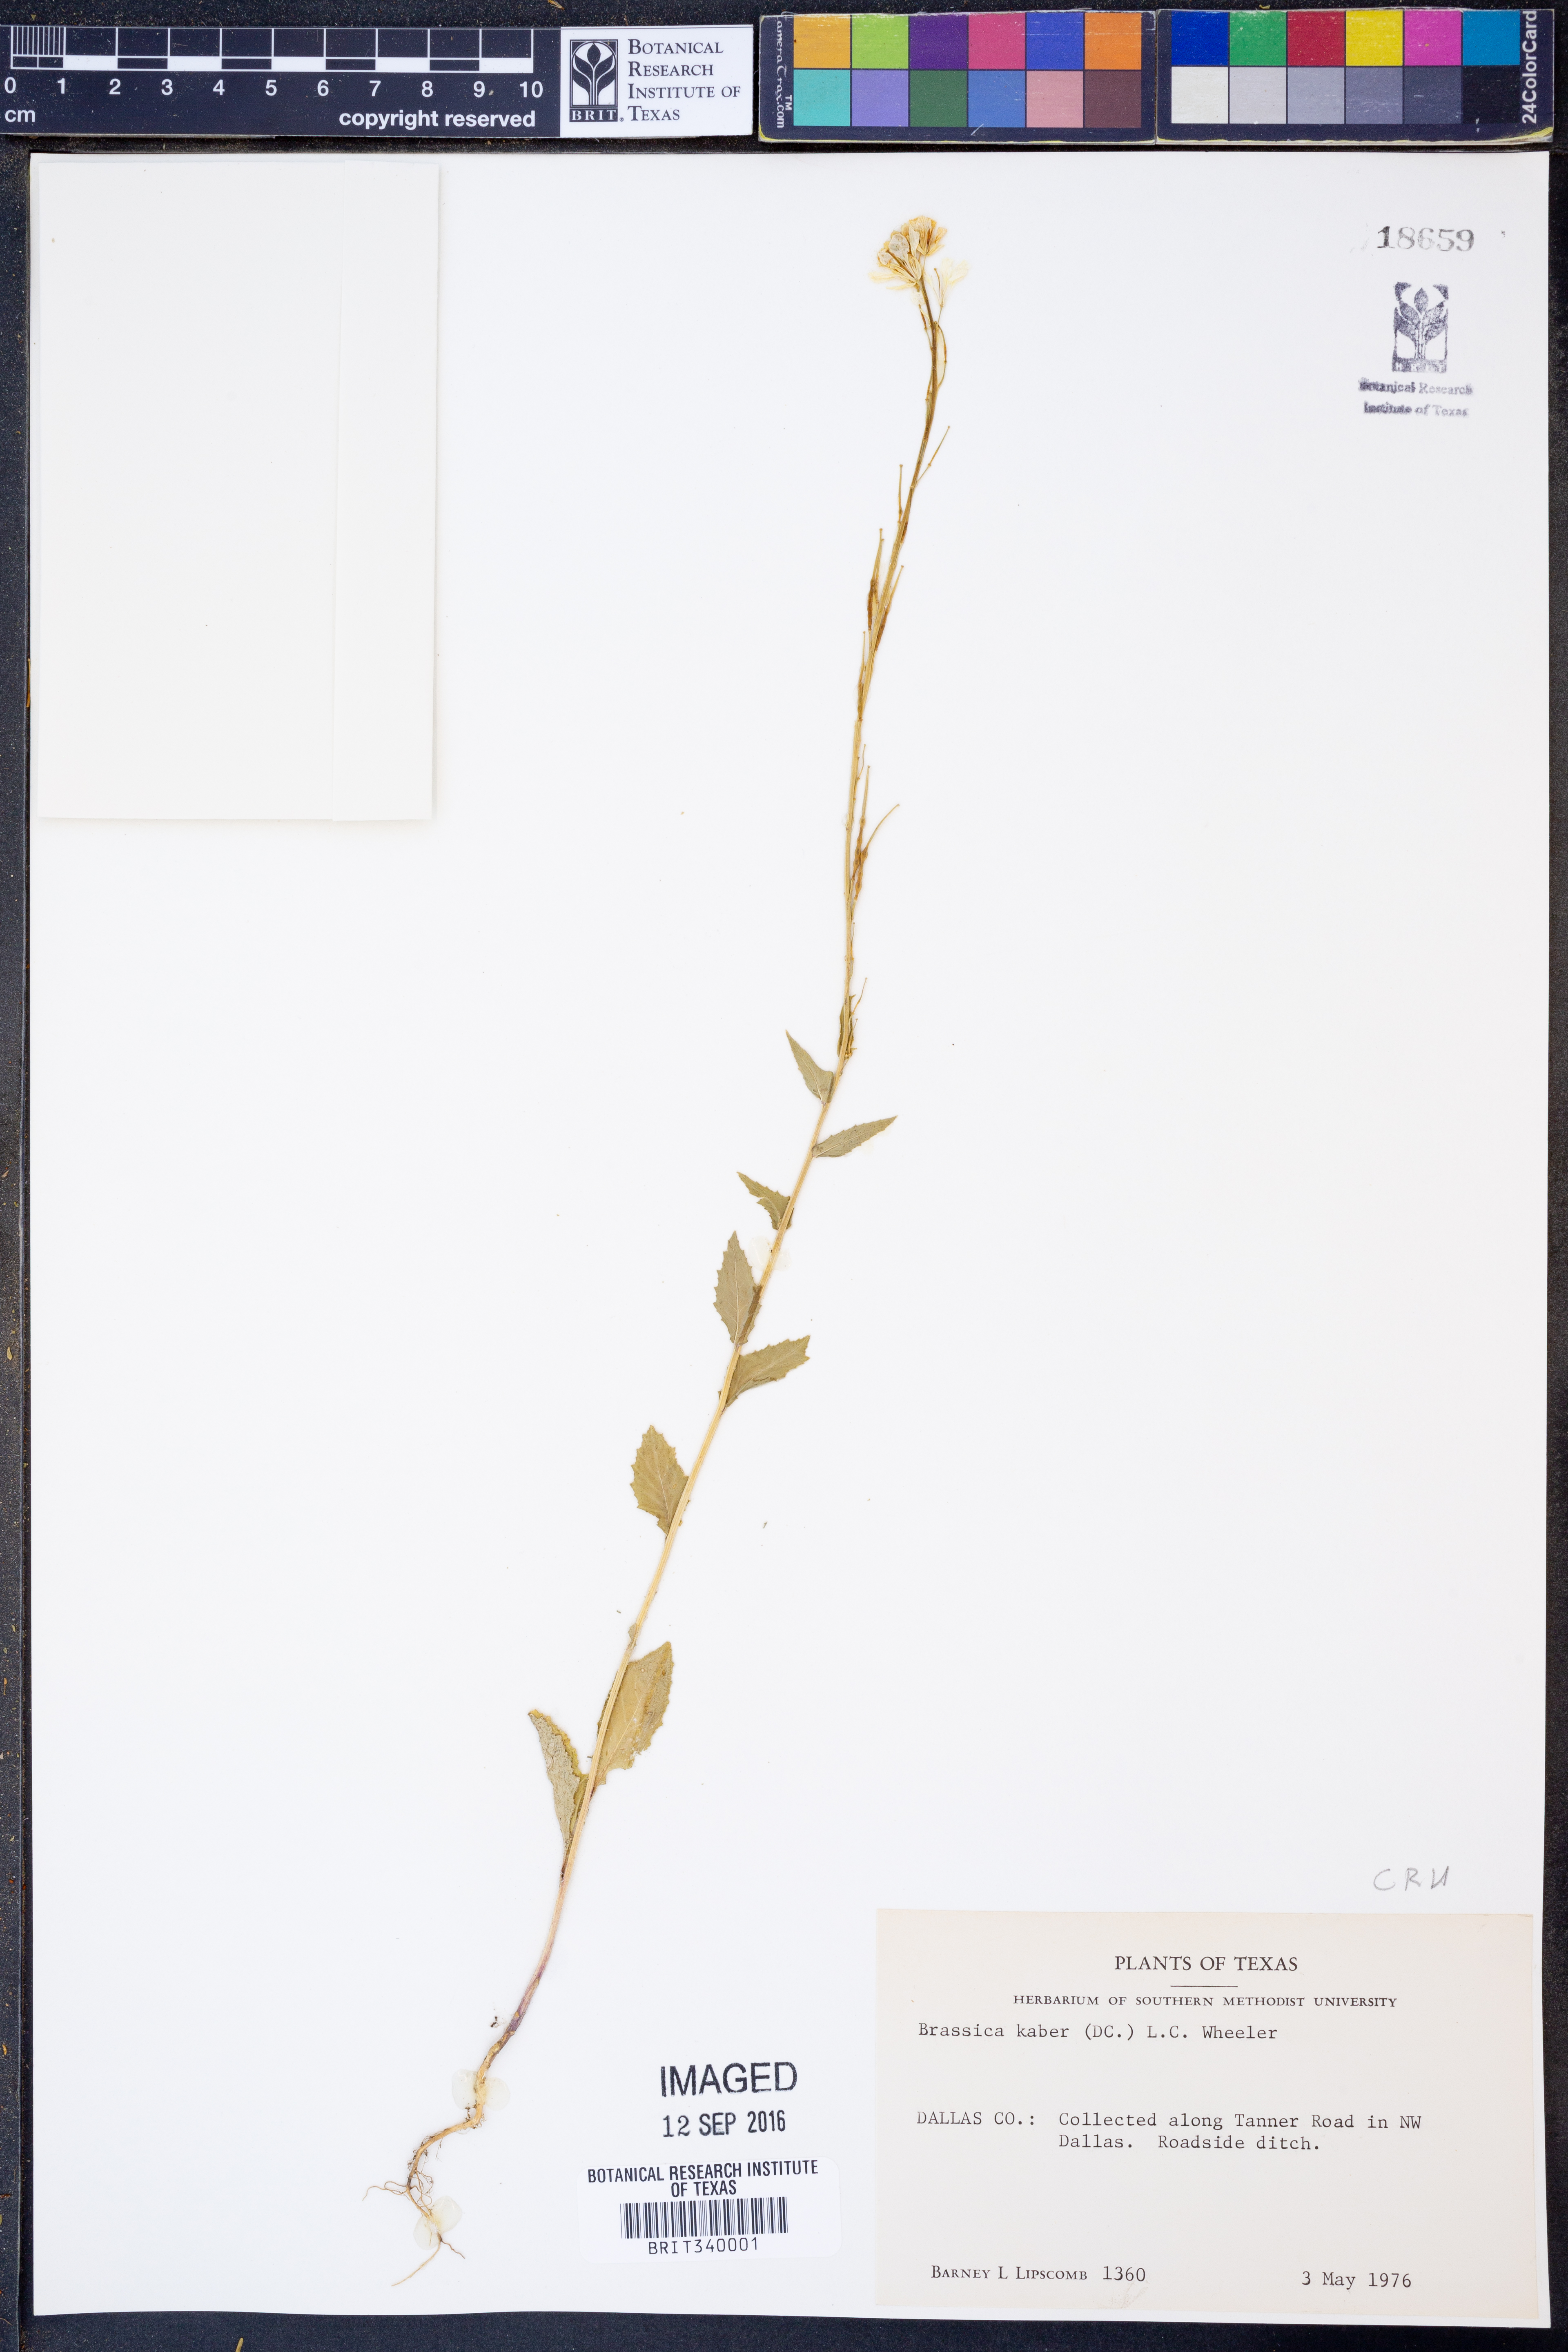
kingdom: Plantae
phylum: Tracheophyta
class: Magnoliopsida
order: Brassicales
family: Brassicaceae
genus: Sinapis
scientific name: Sinapis arvensis
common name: Charlock
